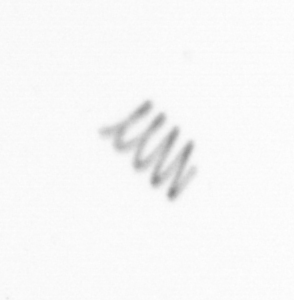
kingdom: Chromista
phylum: Ochrophyta
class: Bacillariophyceae
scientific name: Bacillariophyceae
